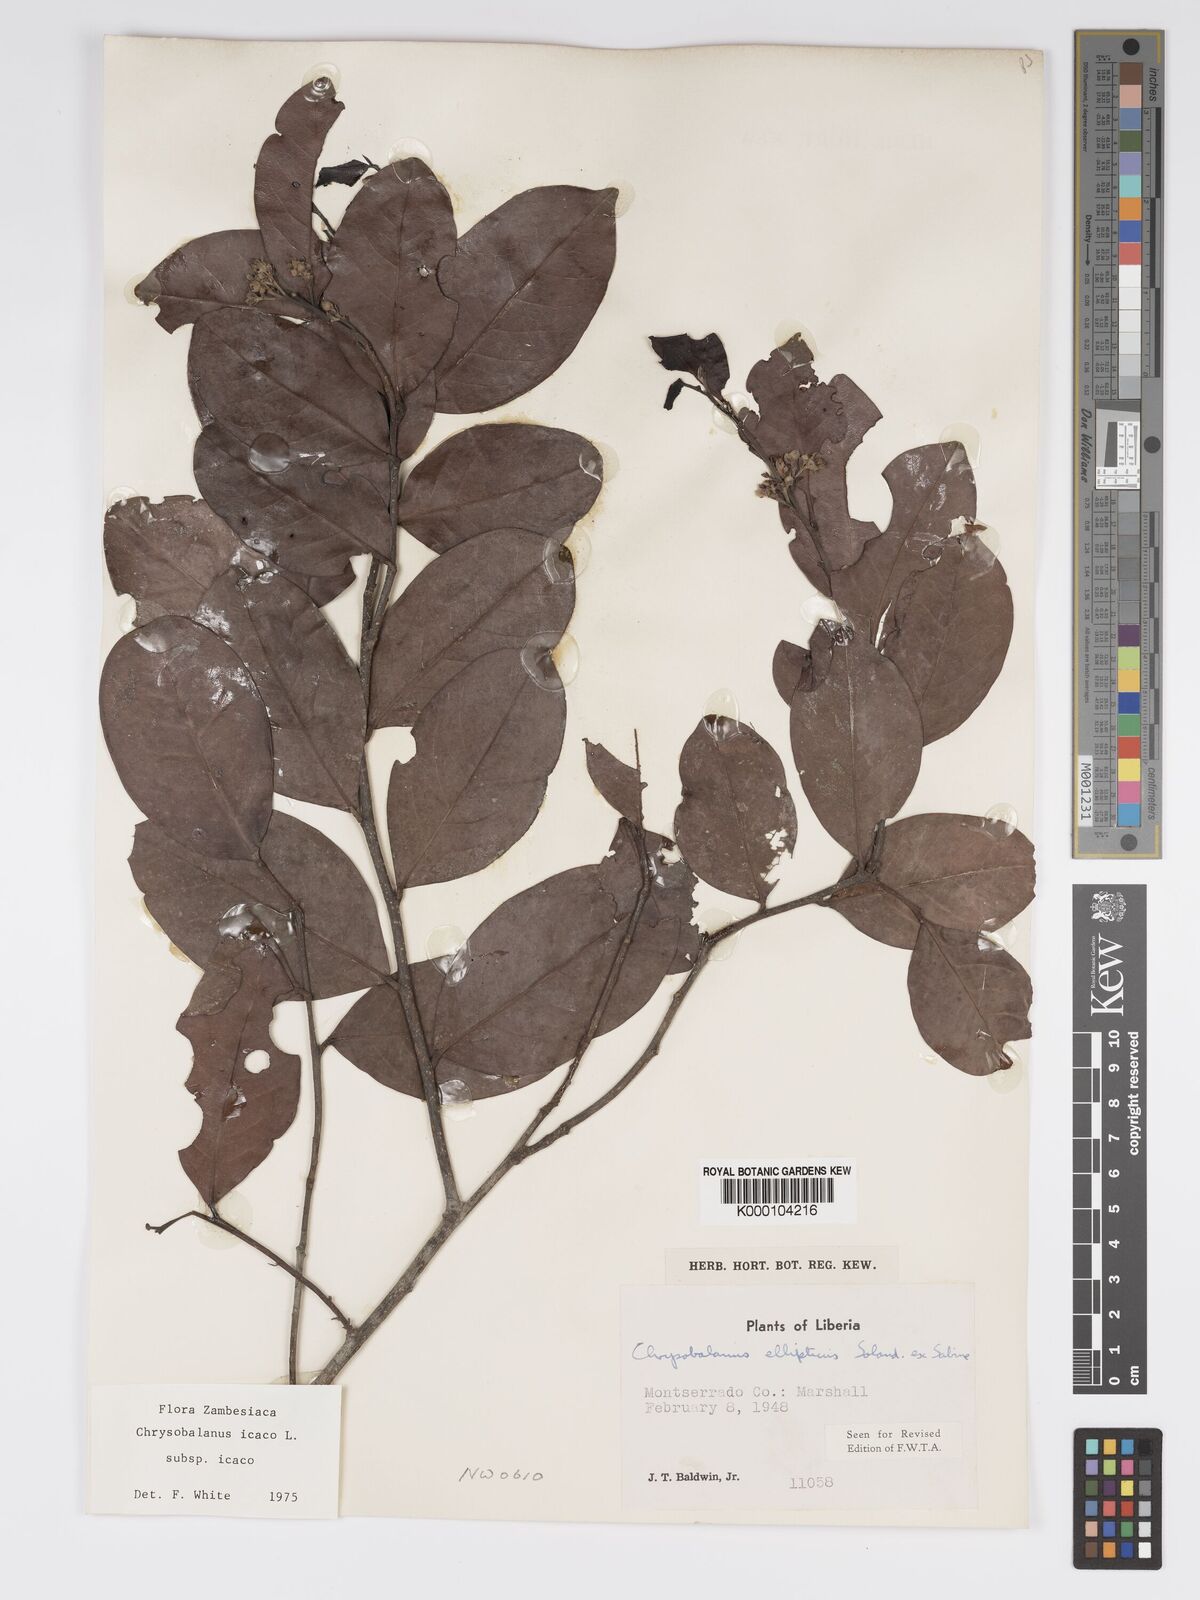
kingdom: Plantae
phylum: Tracheophyta
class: Magnoliopsida
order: Malpighiales
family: Chrysobalanaceae
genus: Chrysobalanus
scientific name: Chrysobalanus icaco
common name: Coco plum
